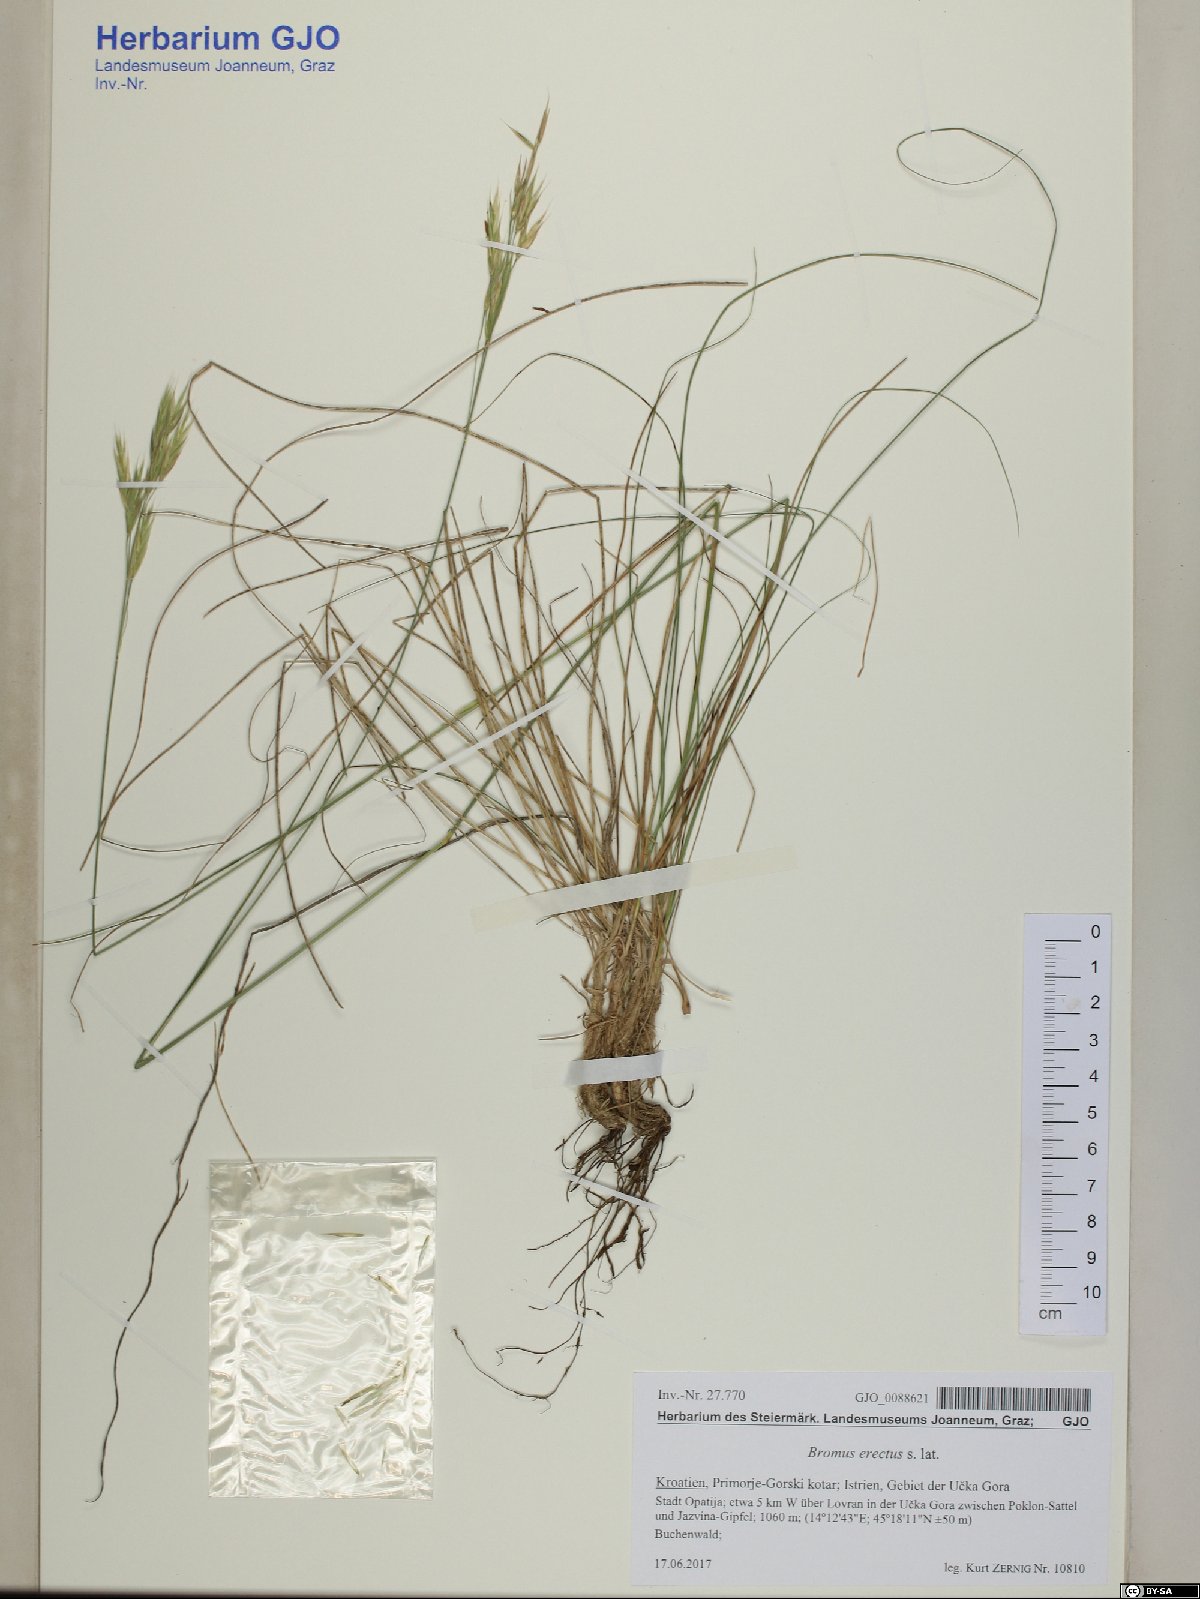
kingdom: Plantae
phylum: Tracheophyta
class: Liliopsida
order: Poales
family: Poaceae
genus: Bromus
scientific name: Bromus erectus
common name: Erect brome
